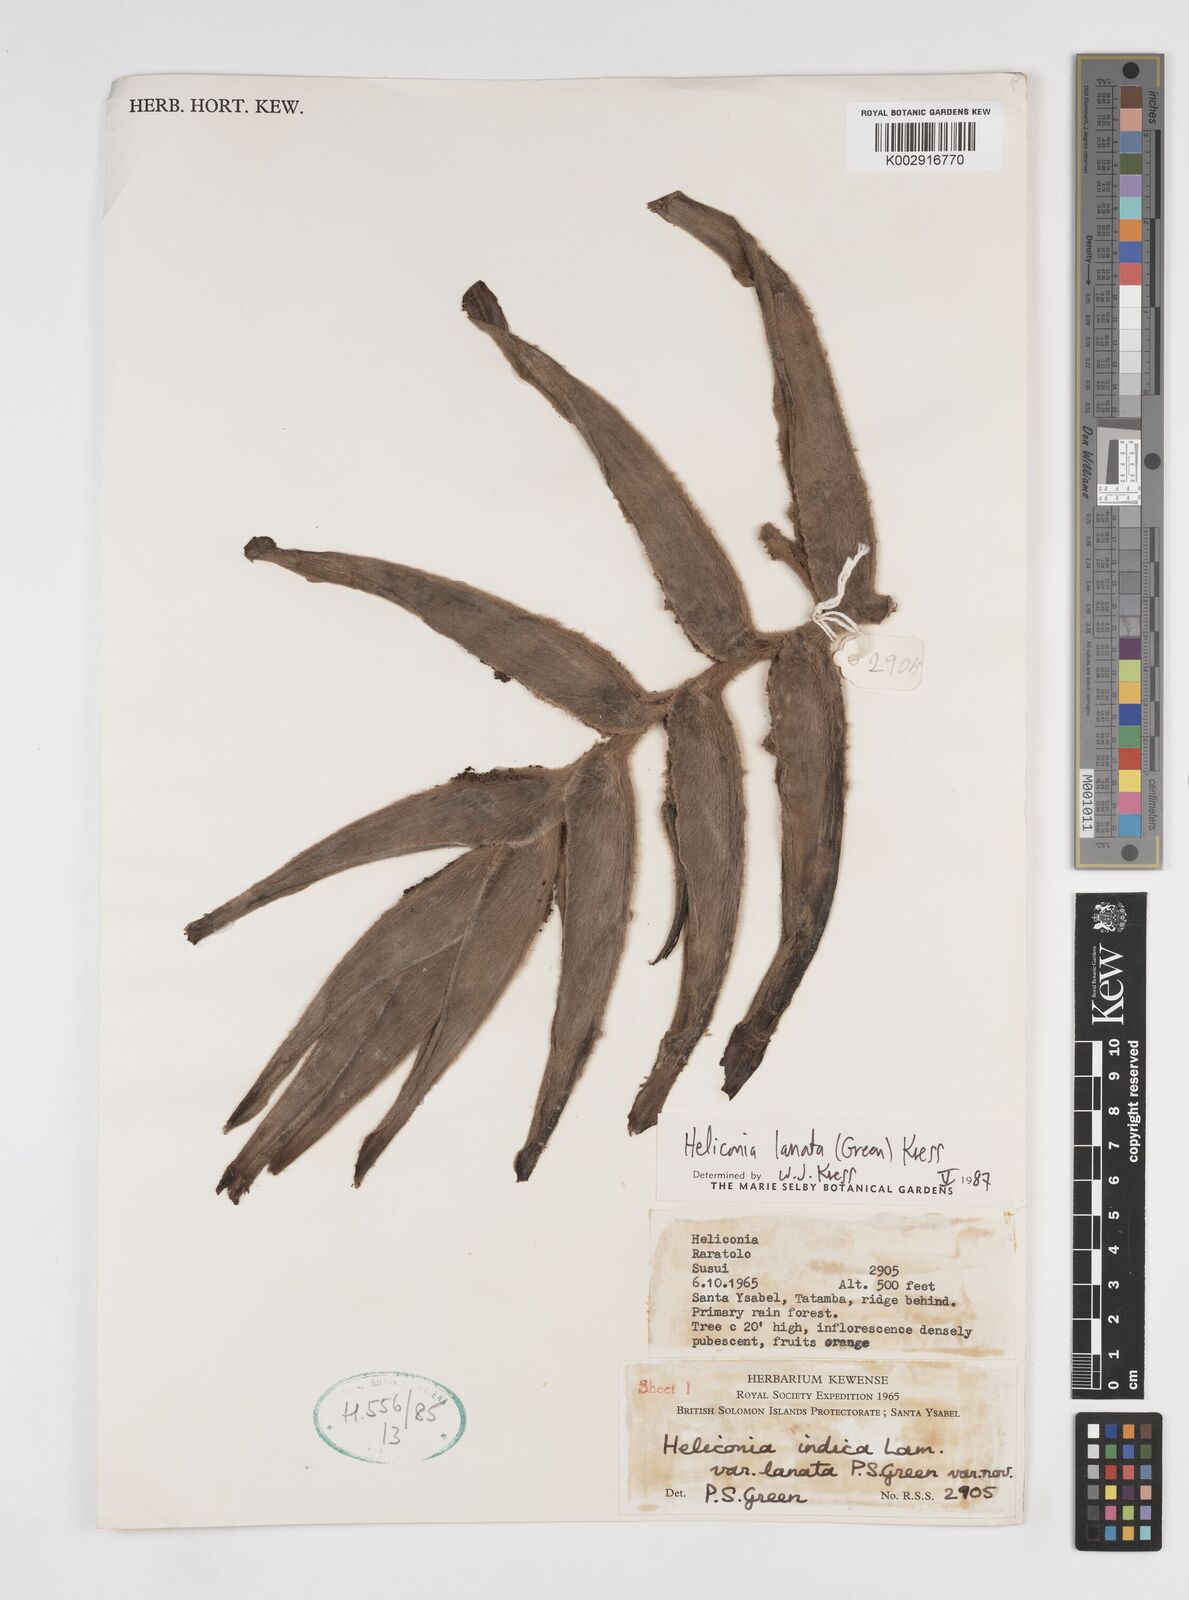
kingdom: Plantae
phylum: Tracheophyta
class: Liliopsida
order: Zingiberales
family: Heliconiaceae
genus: Heliconia
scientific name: Heliconia lanata
